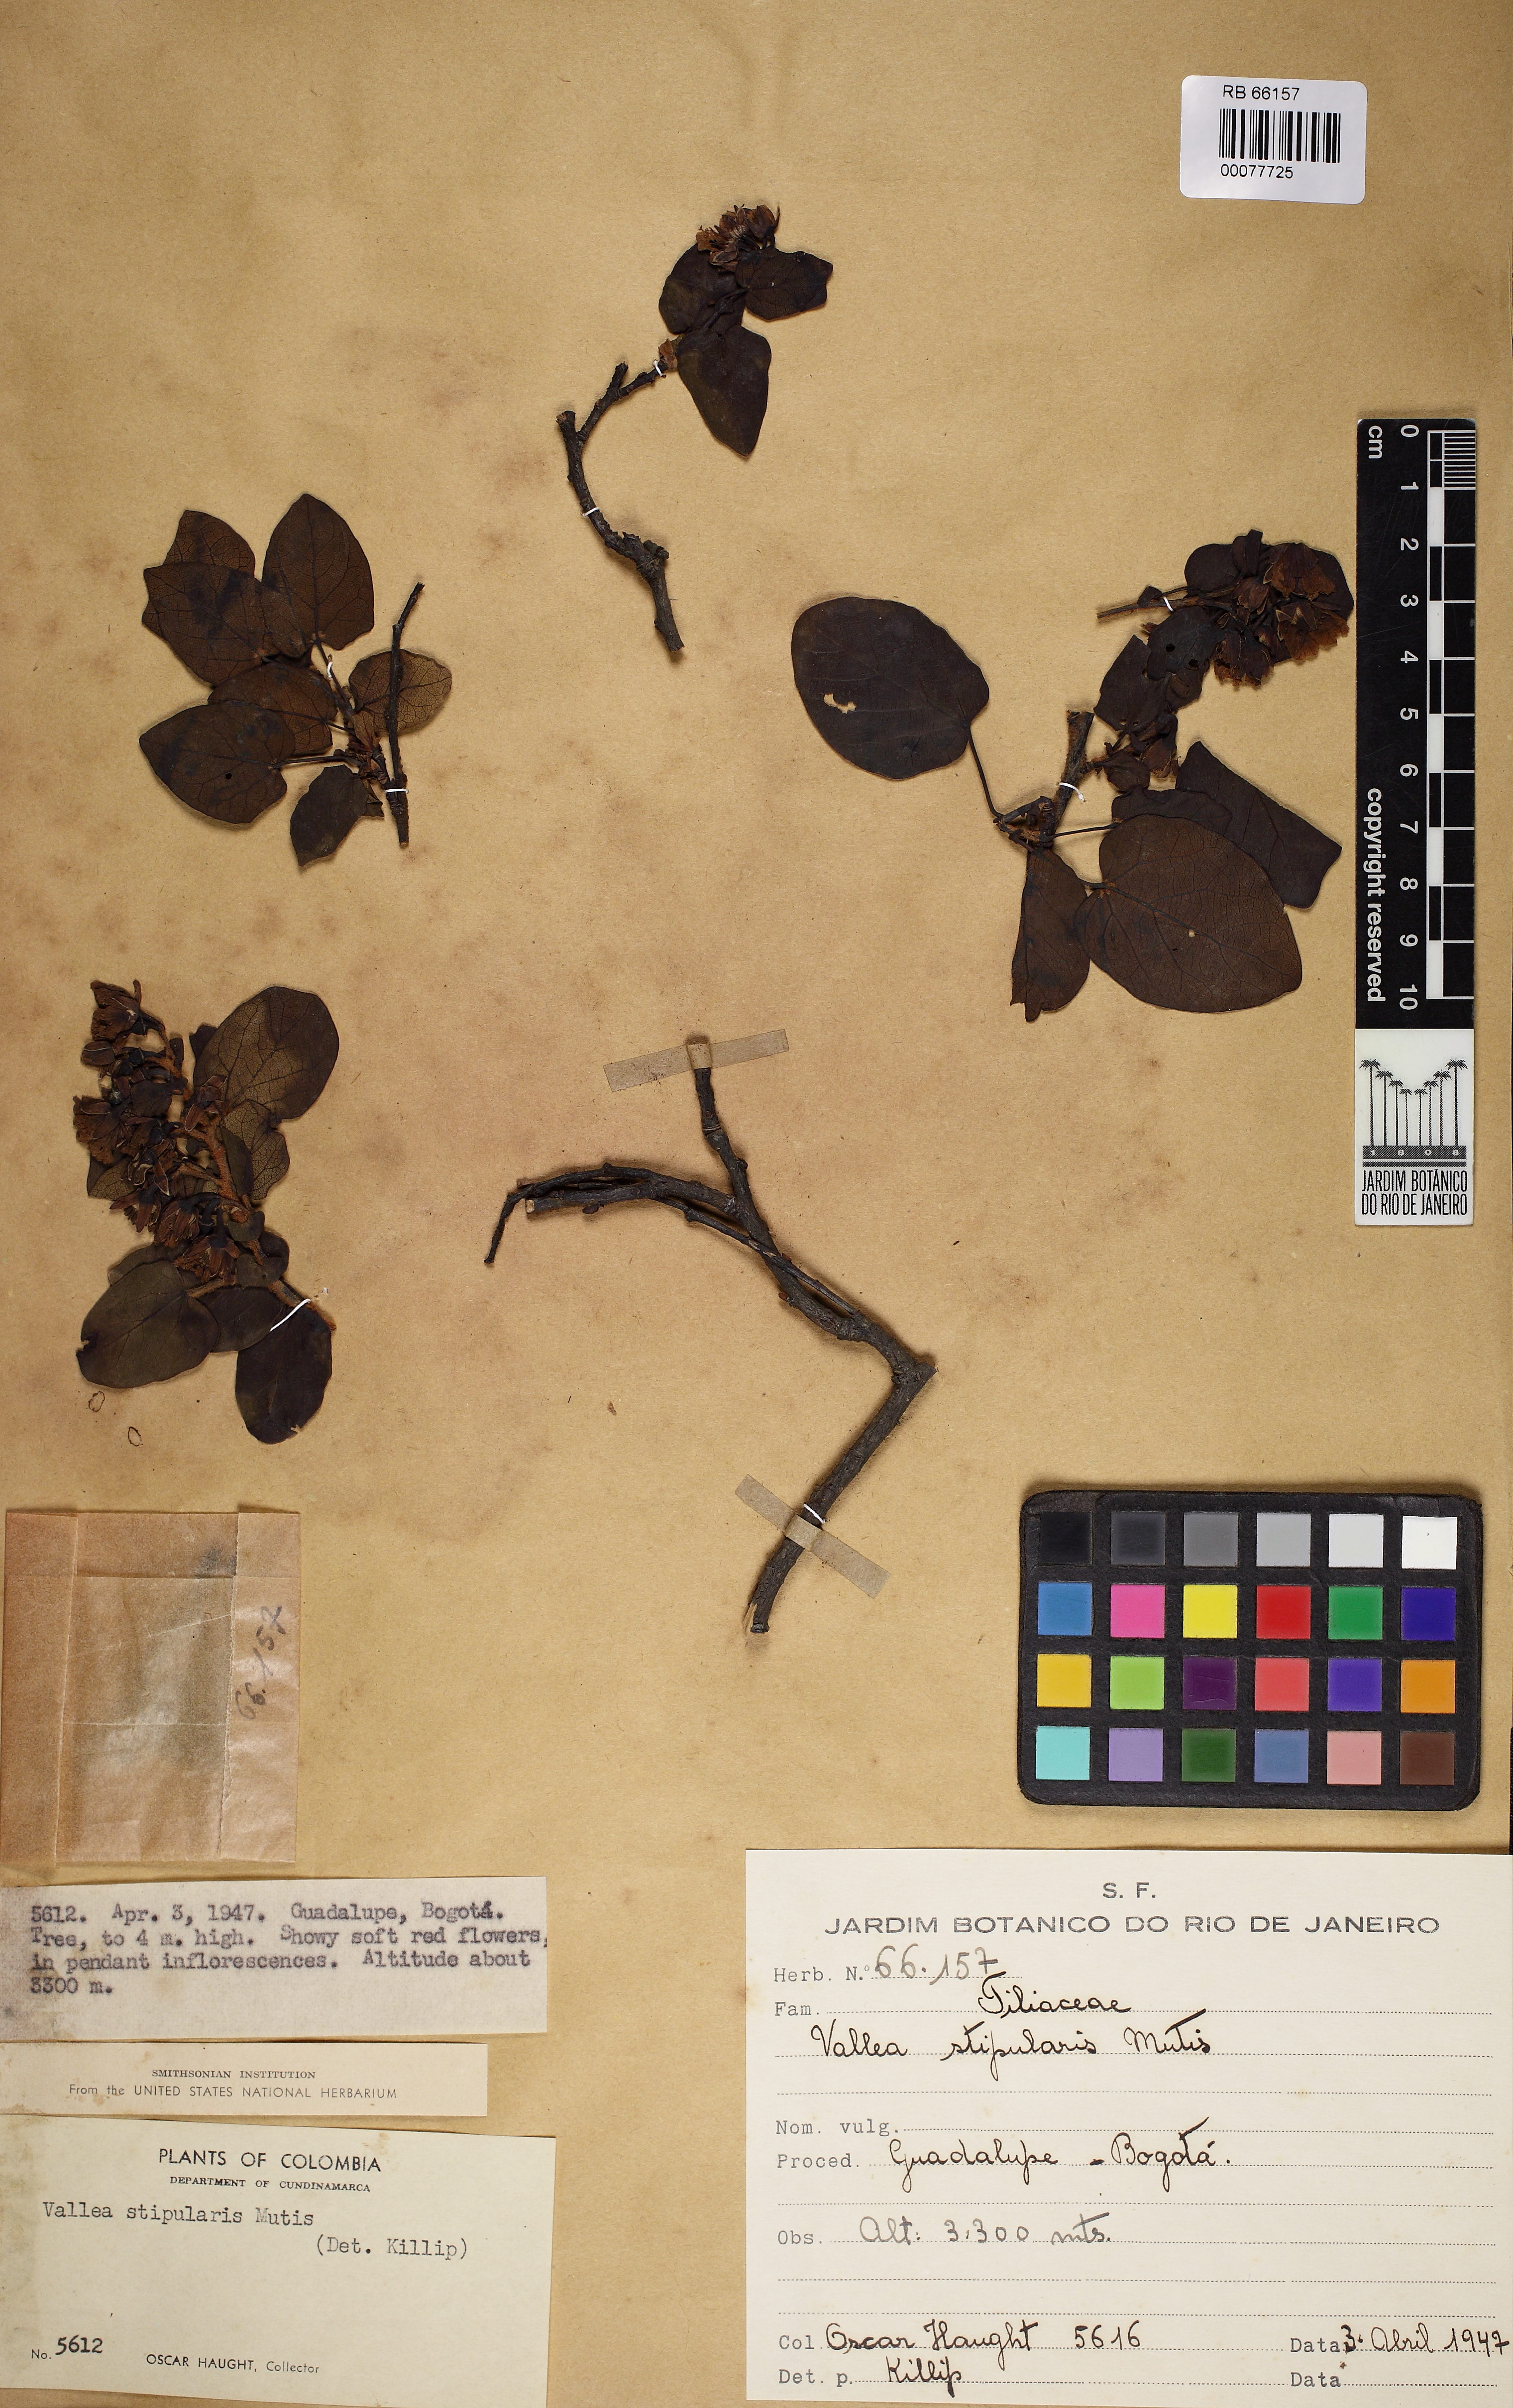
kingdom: Plantae
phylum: Tracheophyta
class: Magnoliopsida
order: Oxalidales
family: Elaeocarpaceae
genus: Vallea
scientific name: Vallea stipularis
